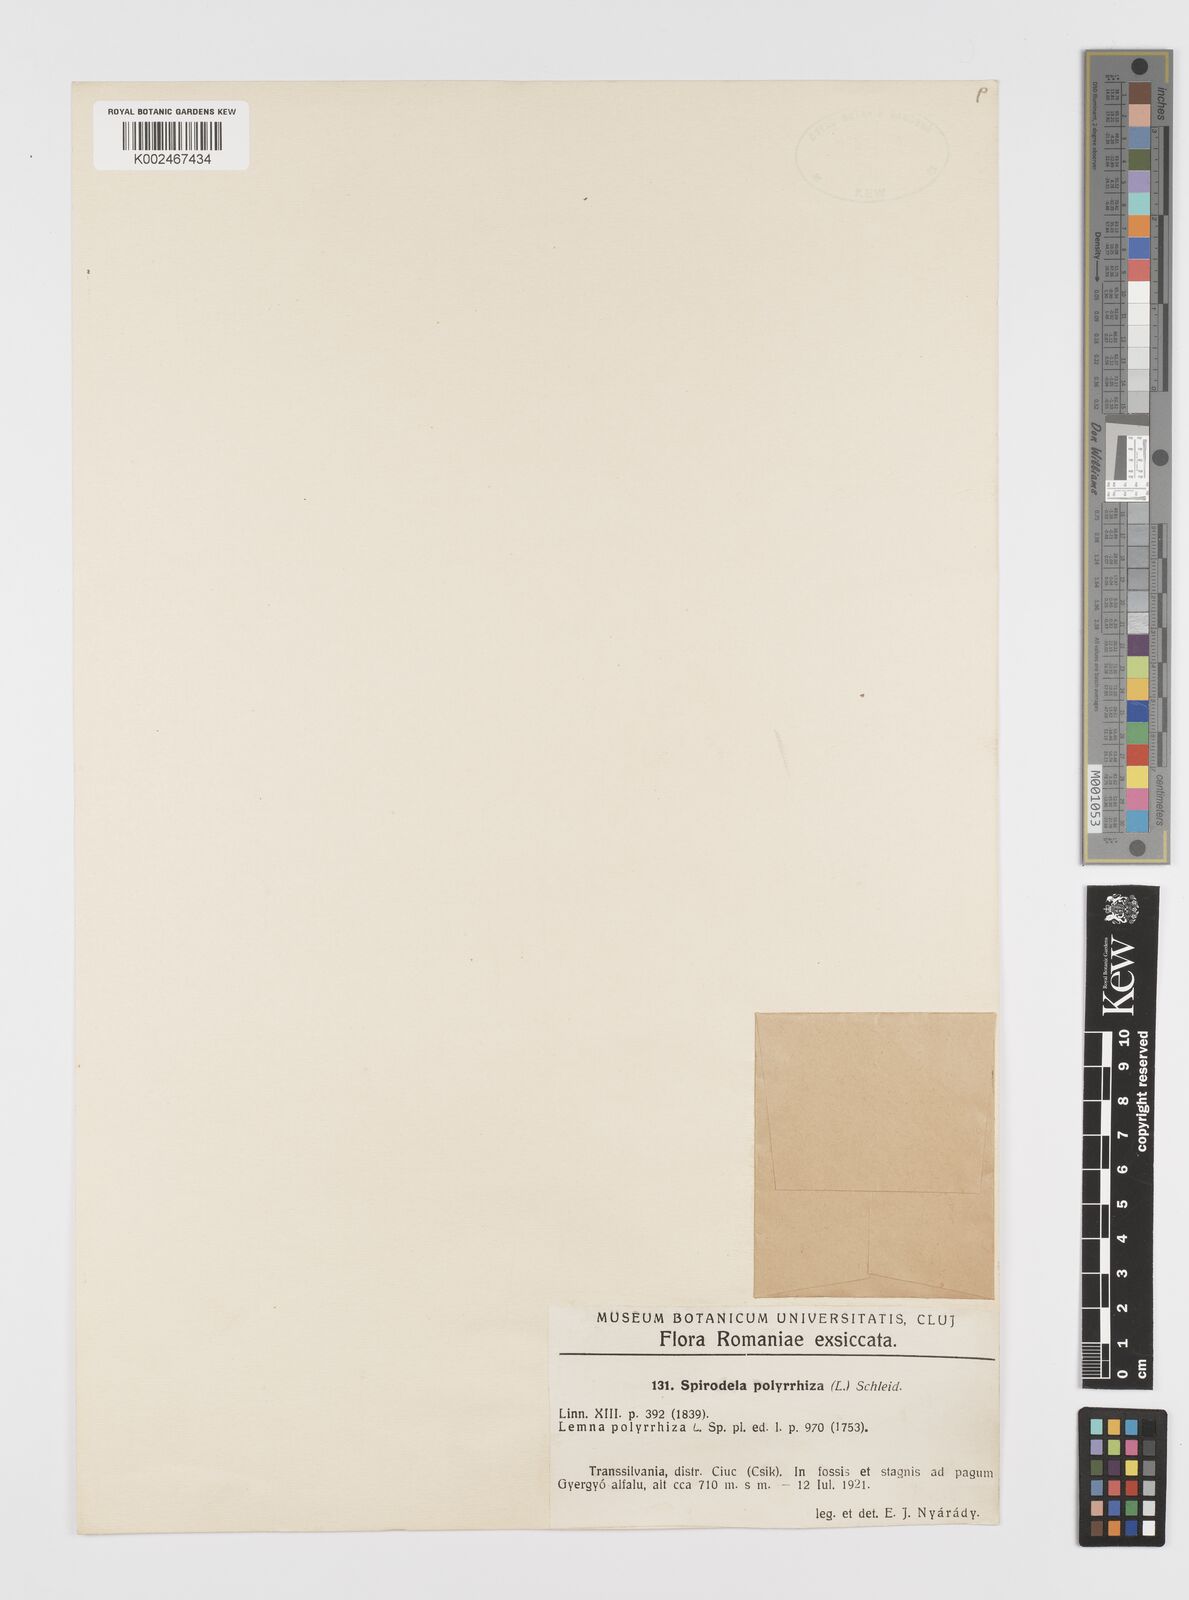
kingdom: Plantae
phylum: Tracheophyta
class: Liliopsida
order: Alismatales
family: Araceae
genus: Spirodela
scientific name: Spirodela polyrhiza
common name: Great duckweed
